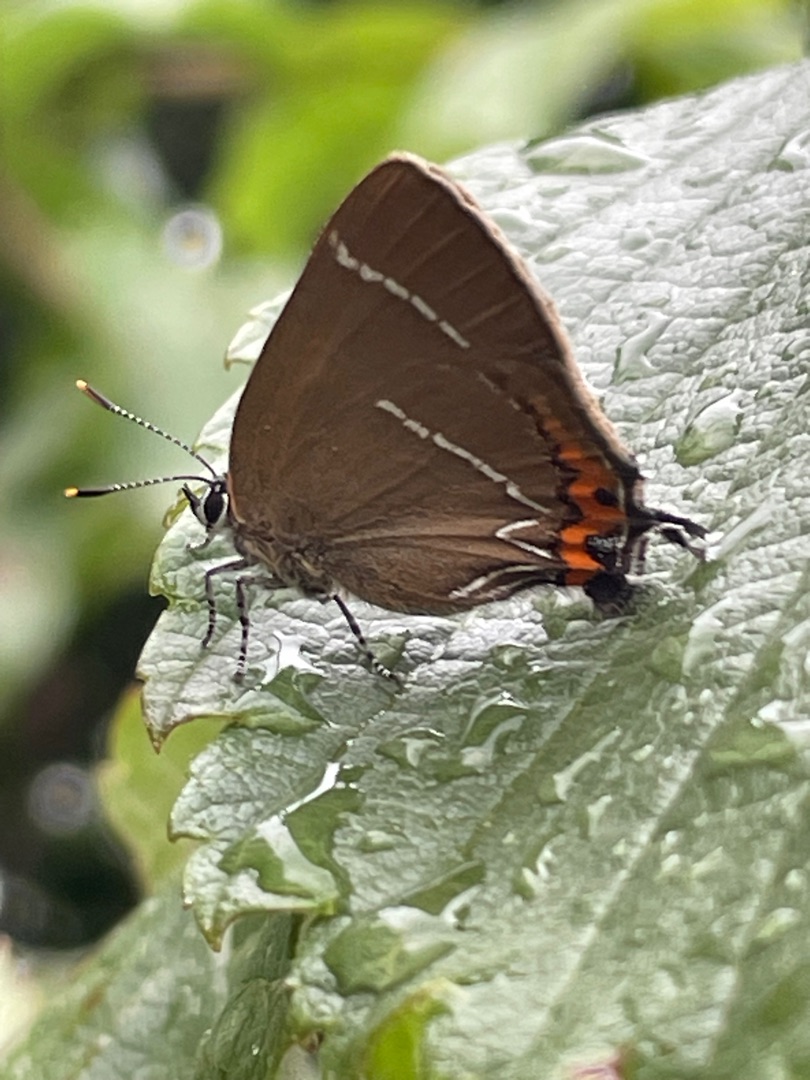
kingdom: Animalia
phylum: Arthropoda
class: Insecta
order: Lepidoptera
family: Lycaenidae
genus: Satyrium
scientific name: Satyrium w-album
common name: Det hvide W
